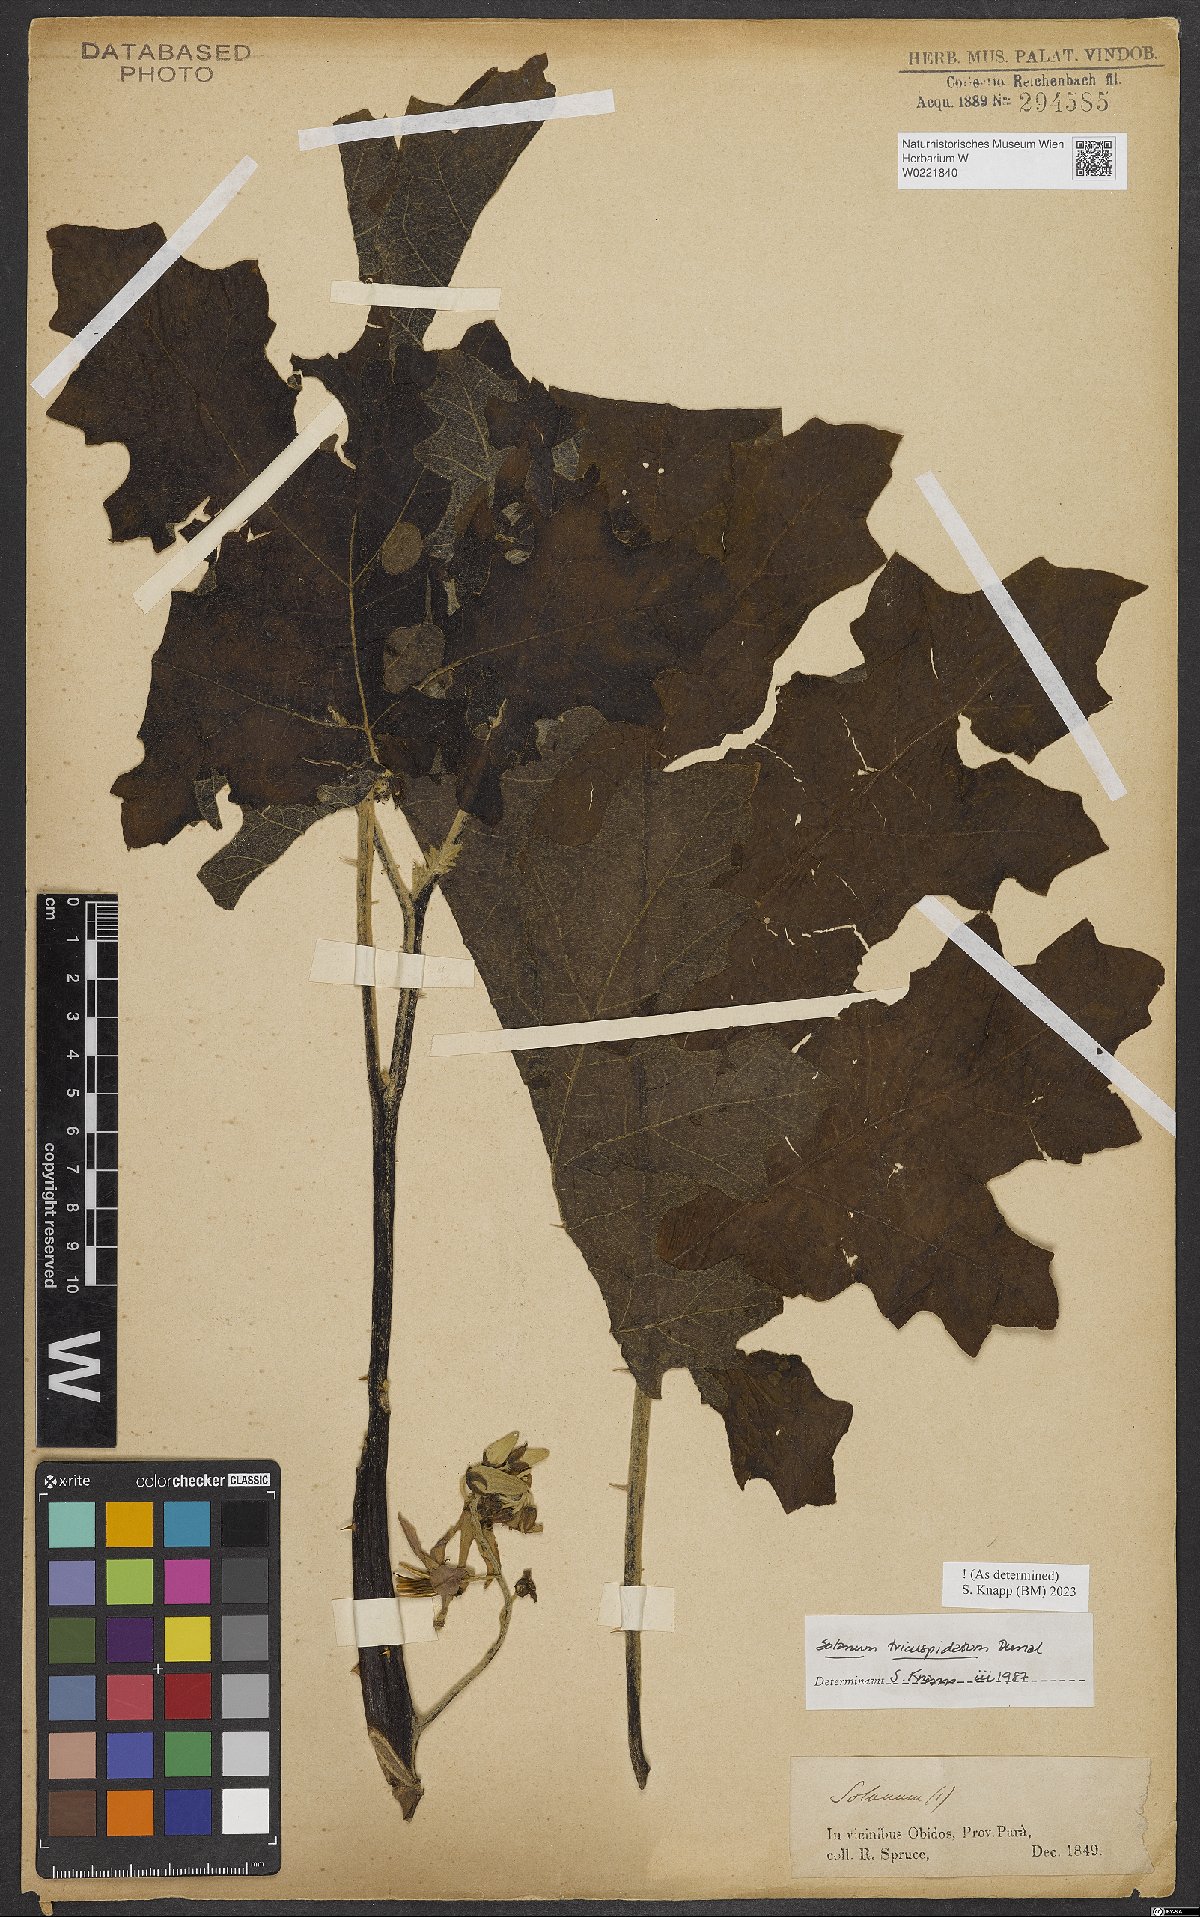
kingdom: Plantae
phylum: Tracheophyta
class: Magnoliopsida
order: Solanales
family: Solanaceae
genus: Solanum
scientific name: Solanum tricuspidatum
